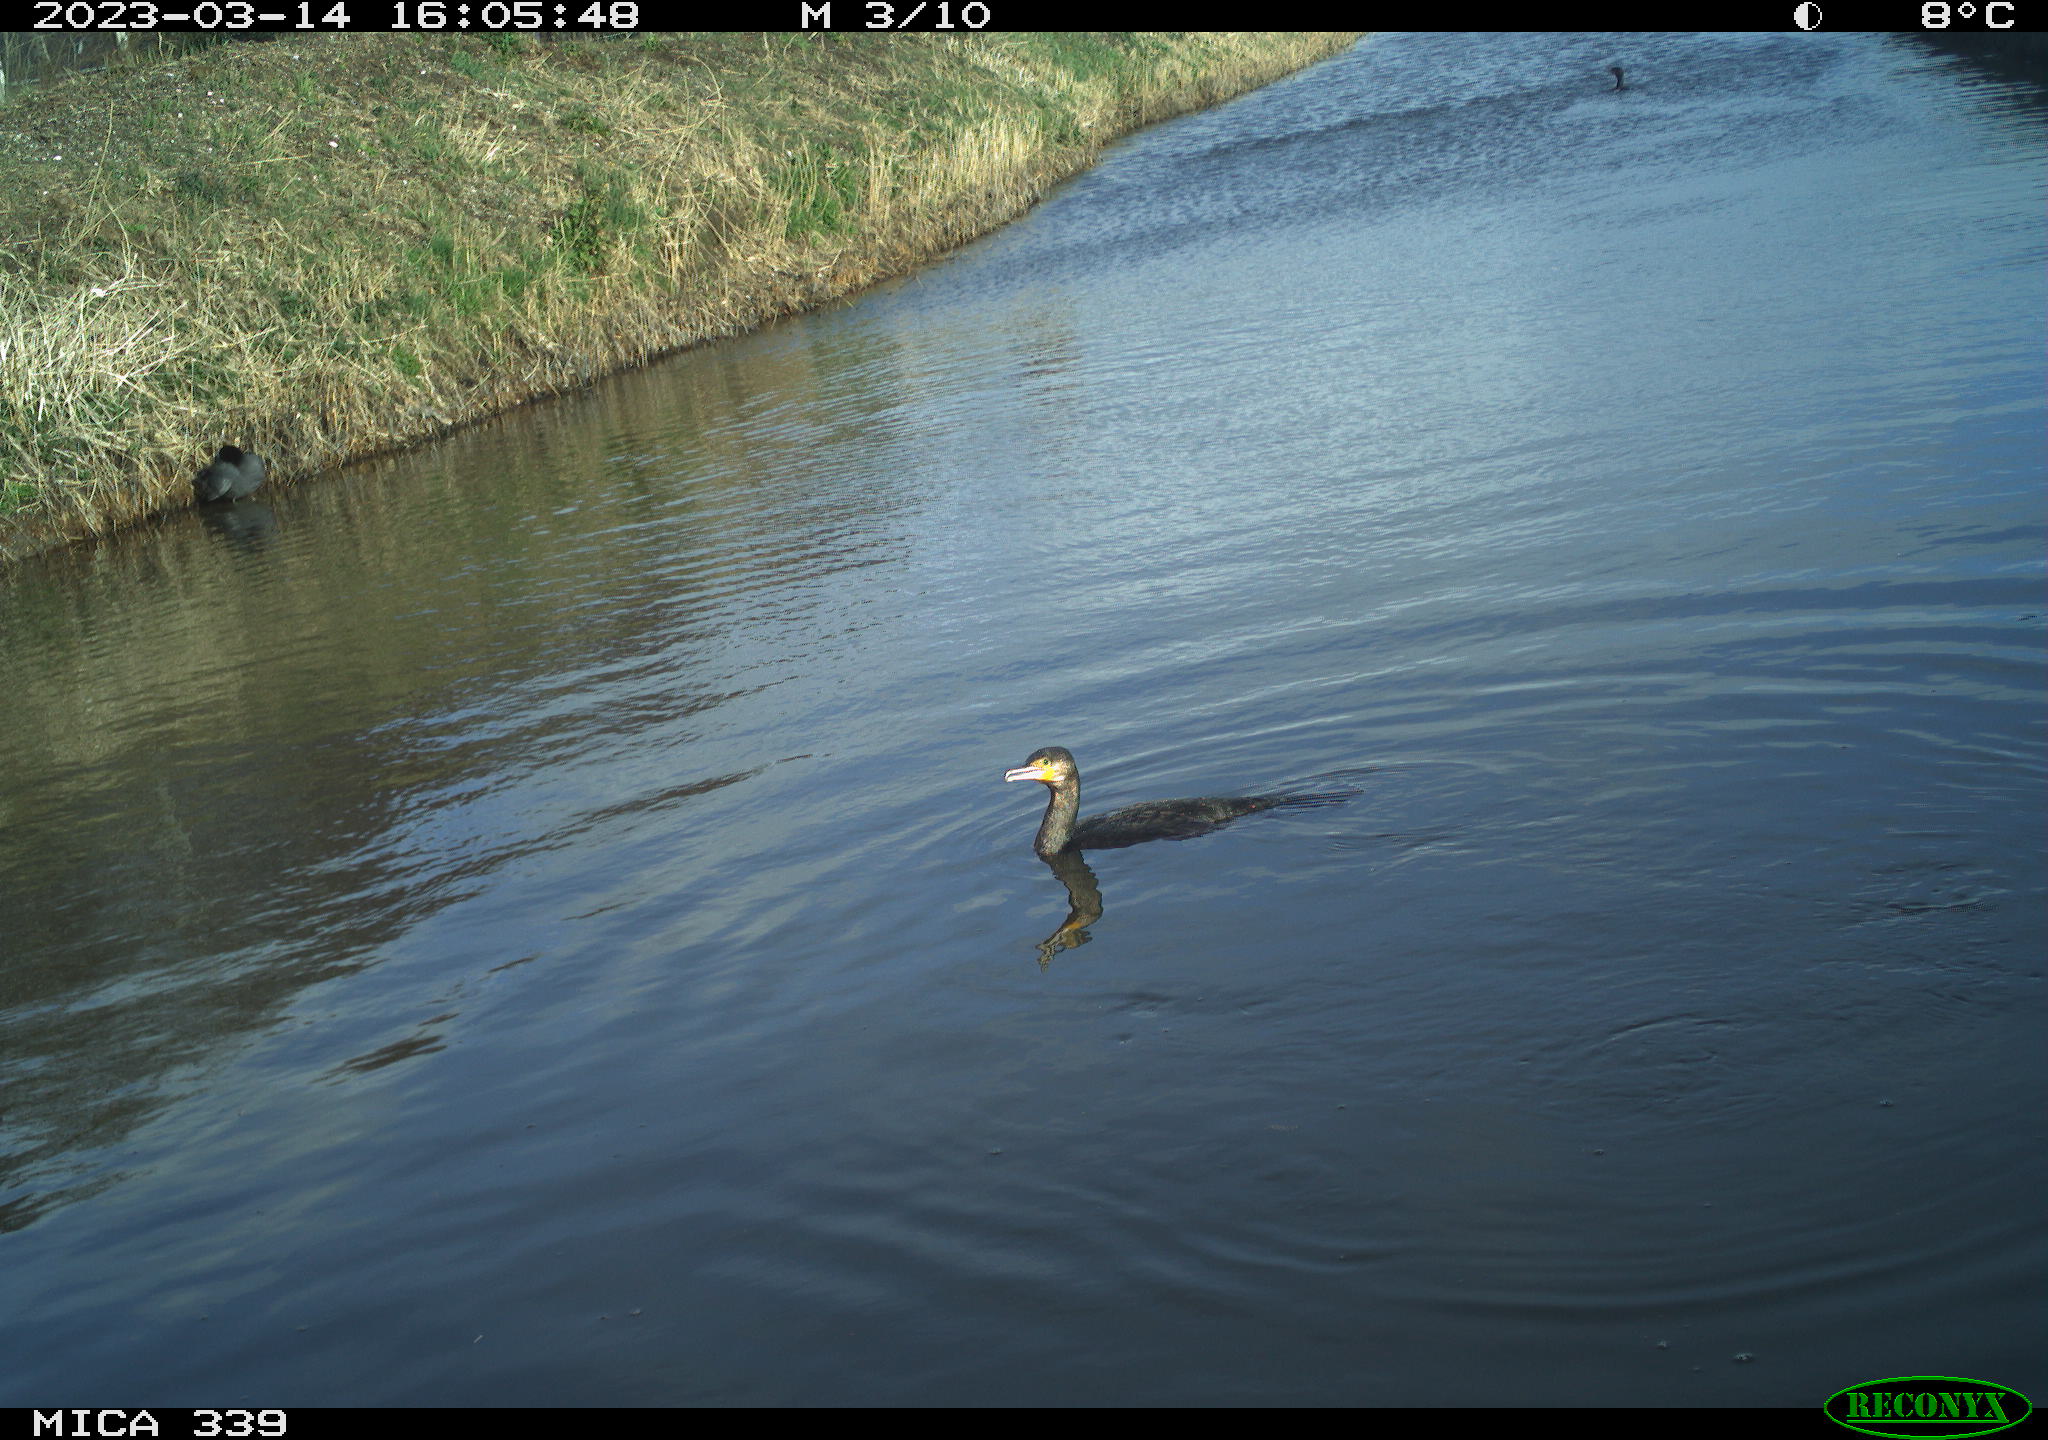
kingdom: Animalia
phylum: Chordata
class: Aves
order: Anseriformes
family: Anatidae
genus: Anas
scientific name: Anas
